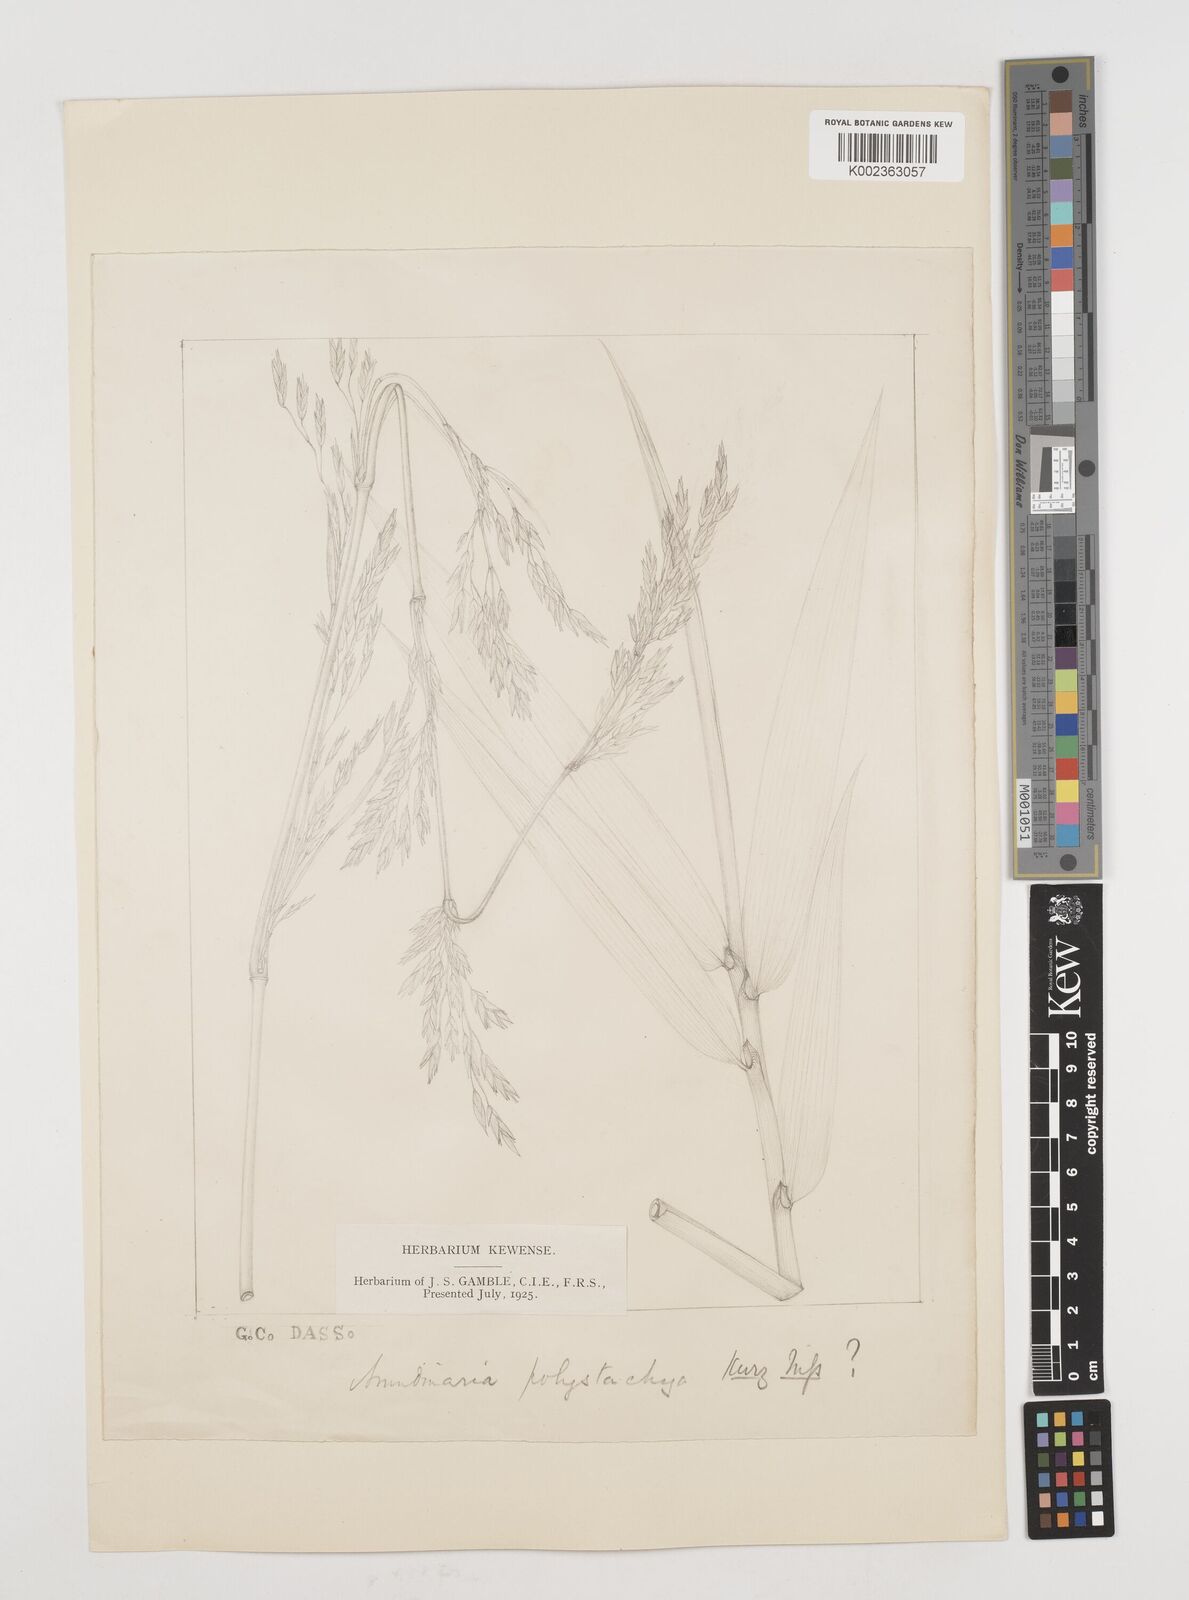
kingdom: Plantae
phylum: Tracheophyta
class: Liliopsida
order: Poales
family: Poaceae
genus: Drepanostachyum
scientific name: Drepanostachyum polystachyum
